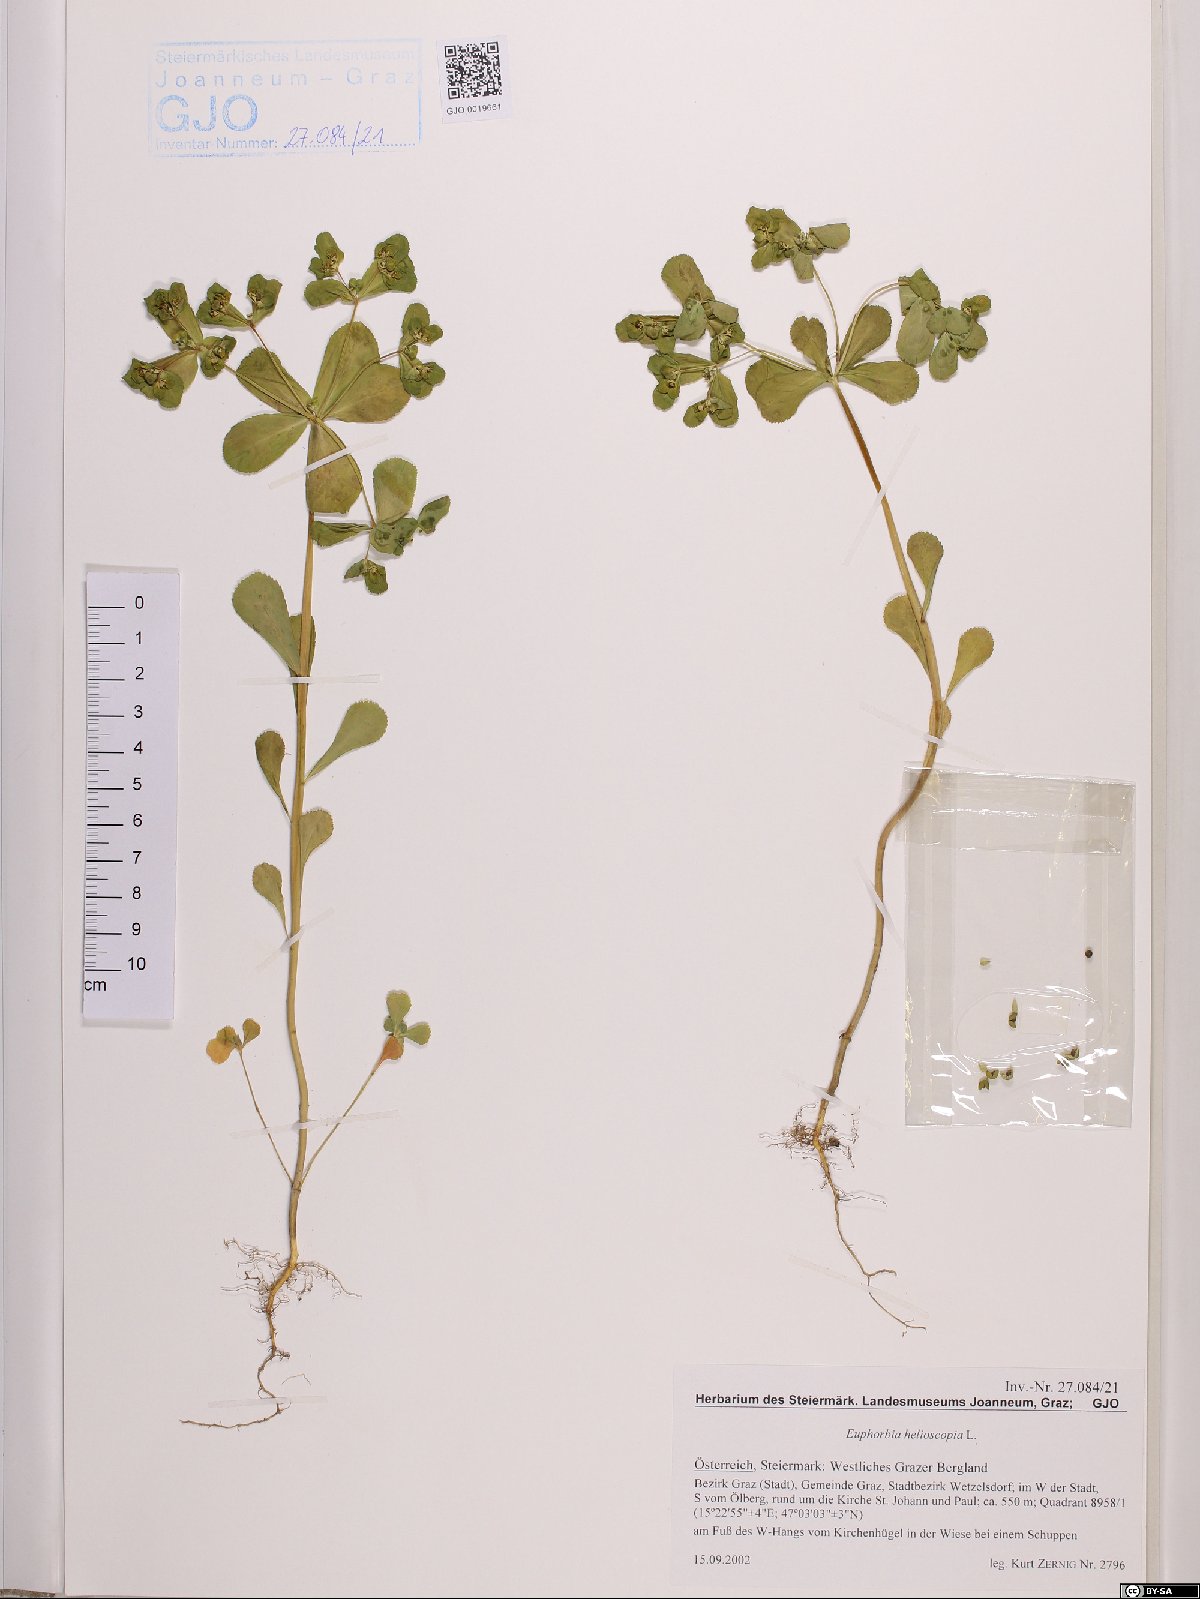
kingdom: Plantae
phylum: Tracheophyta
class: Magnoliopsida
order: Malpighiales
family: Euphorbiaceae
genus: Euphorbia
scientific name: Euphorbia helioscopia
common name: Sun spurge
